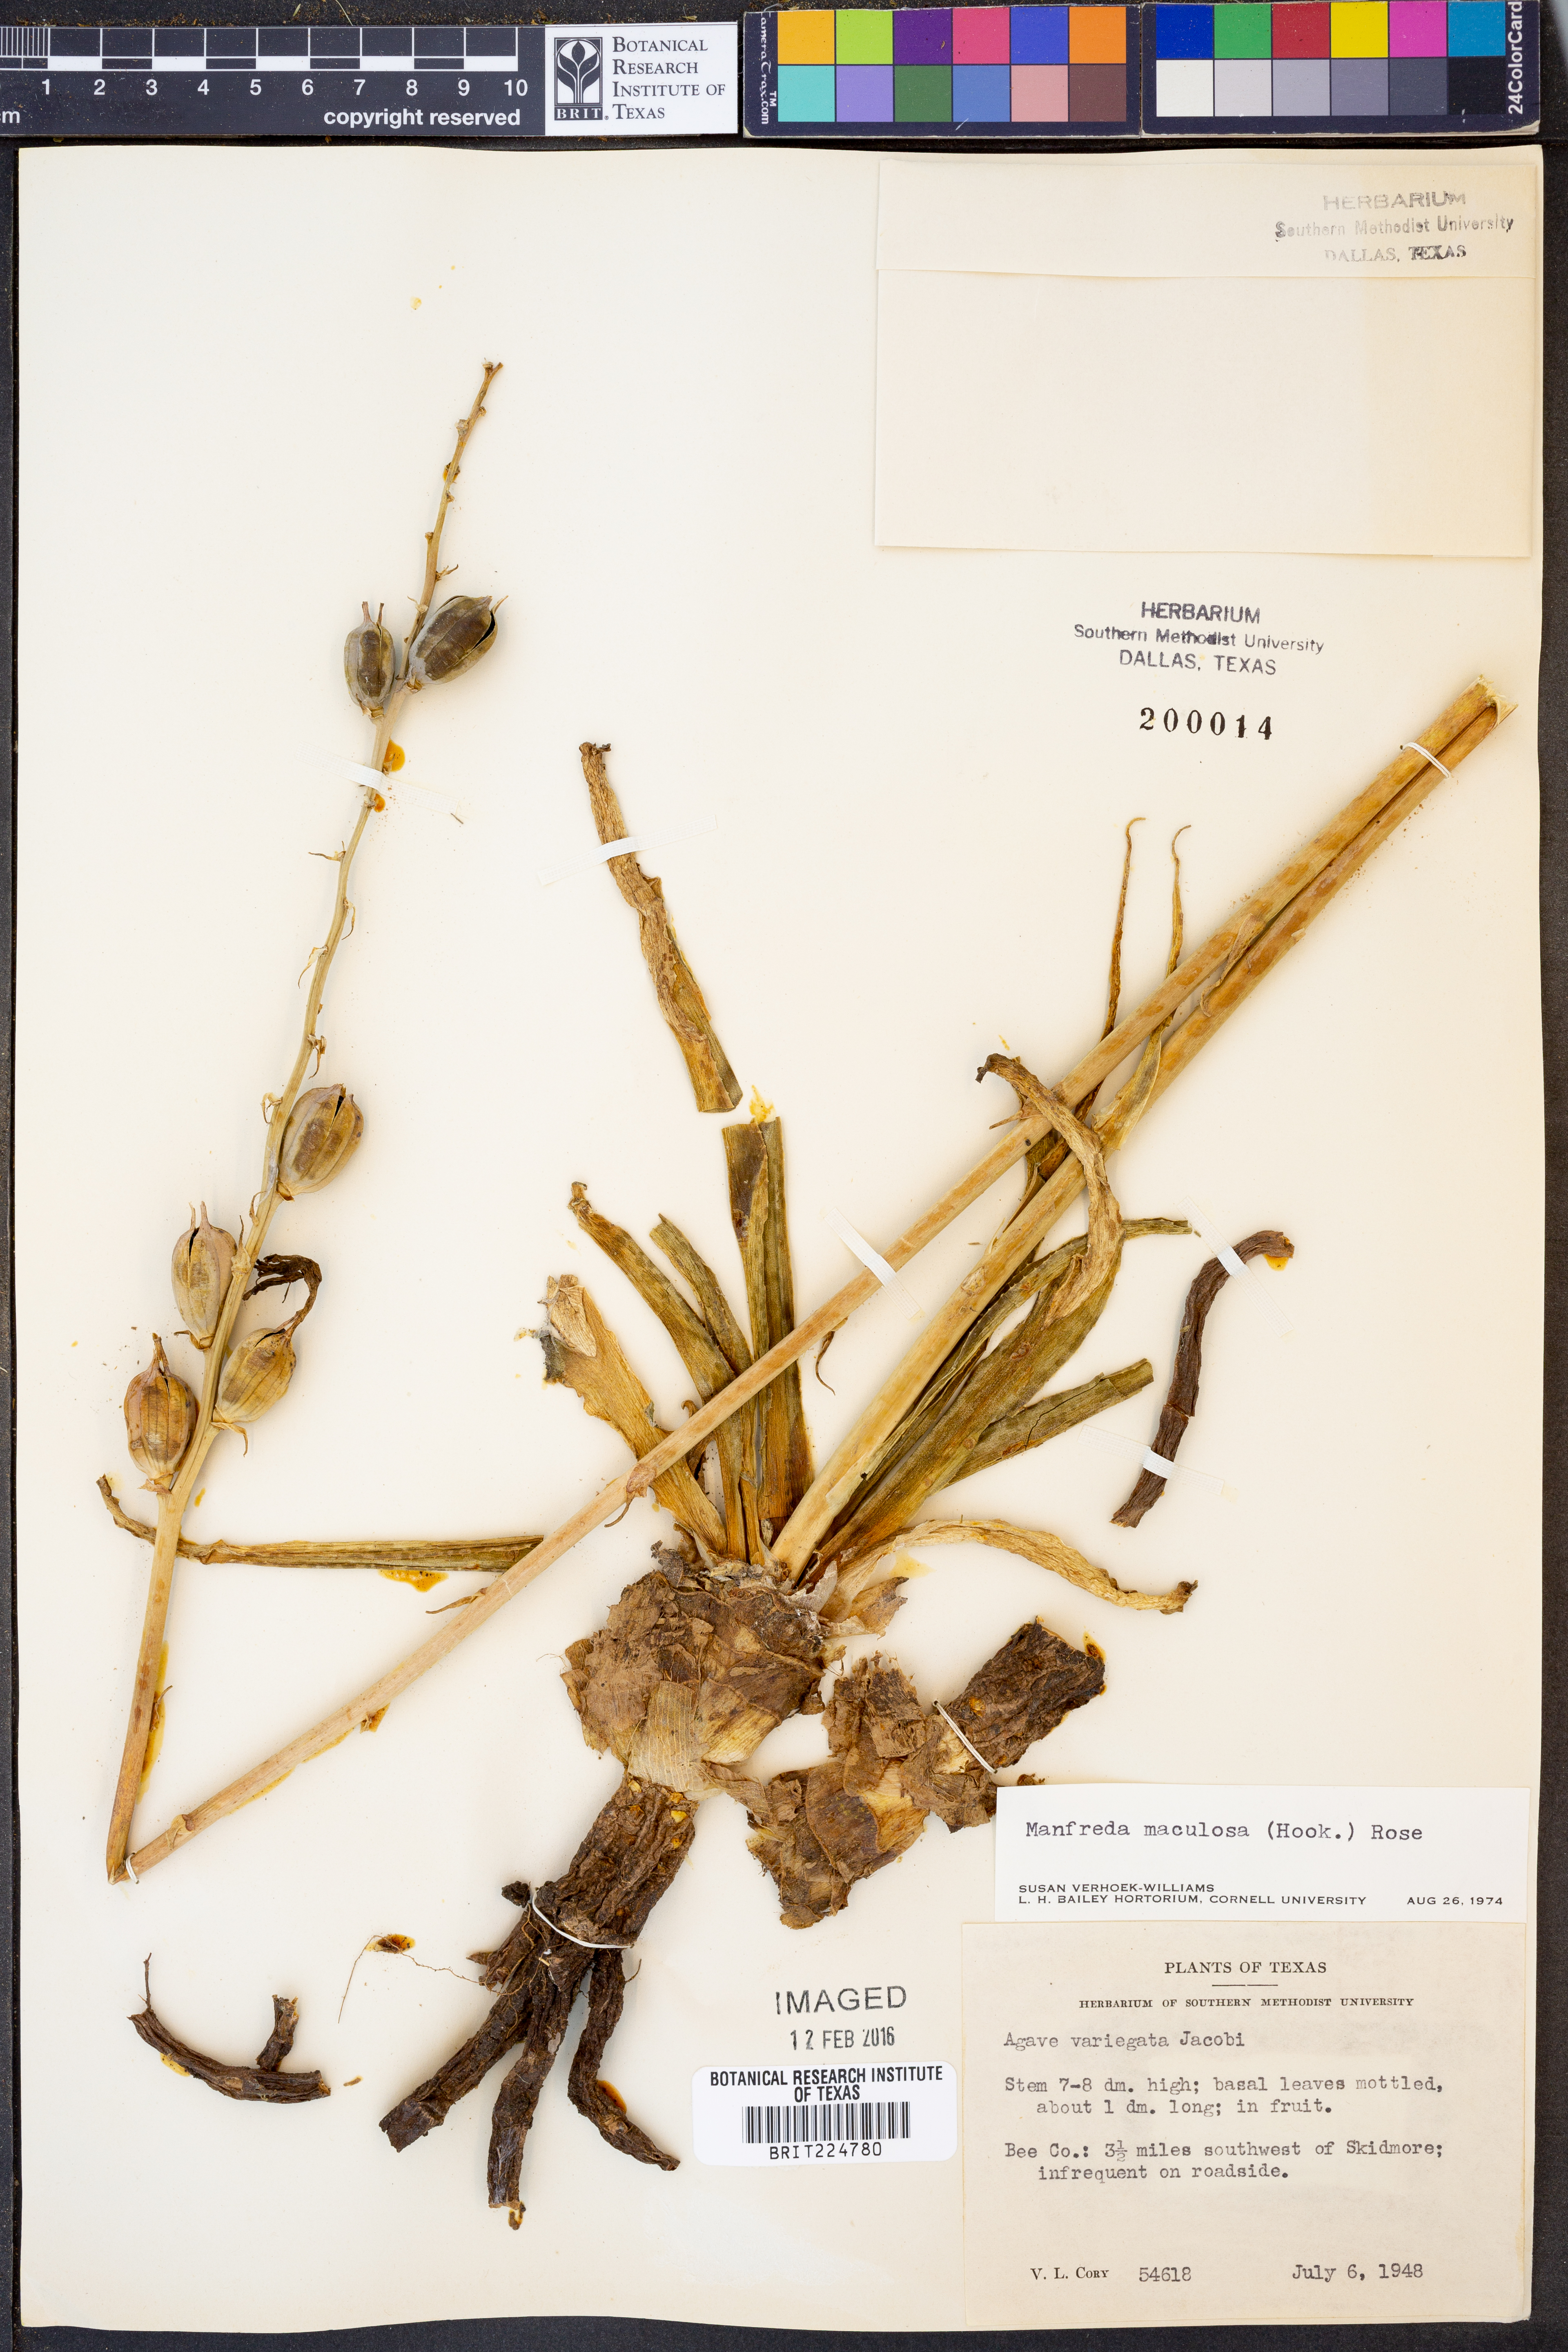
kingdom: Plantae
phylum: Tracheophyta
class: Liliopsida
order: Asparagales
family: Asparagaceae
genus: Agave
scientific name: Agave maculata
